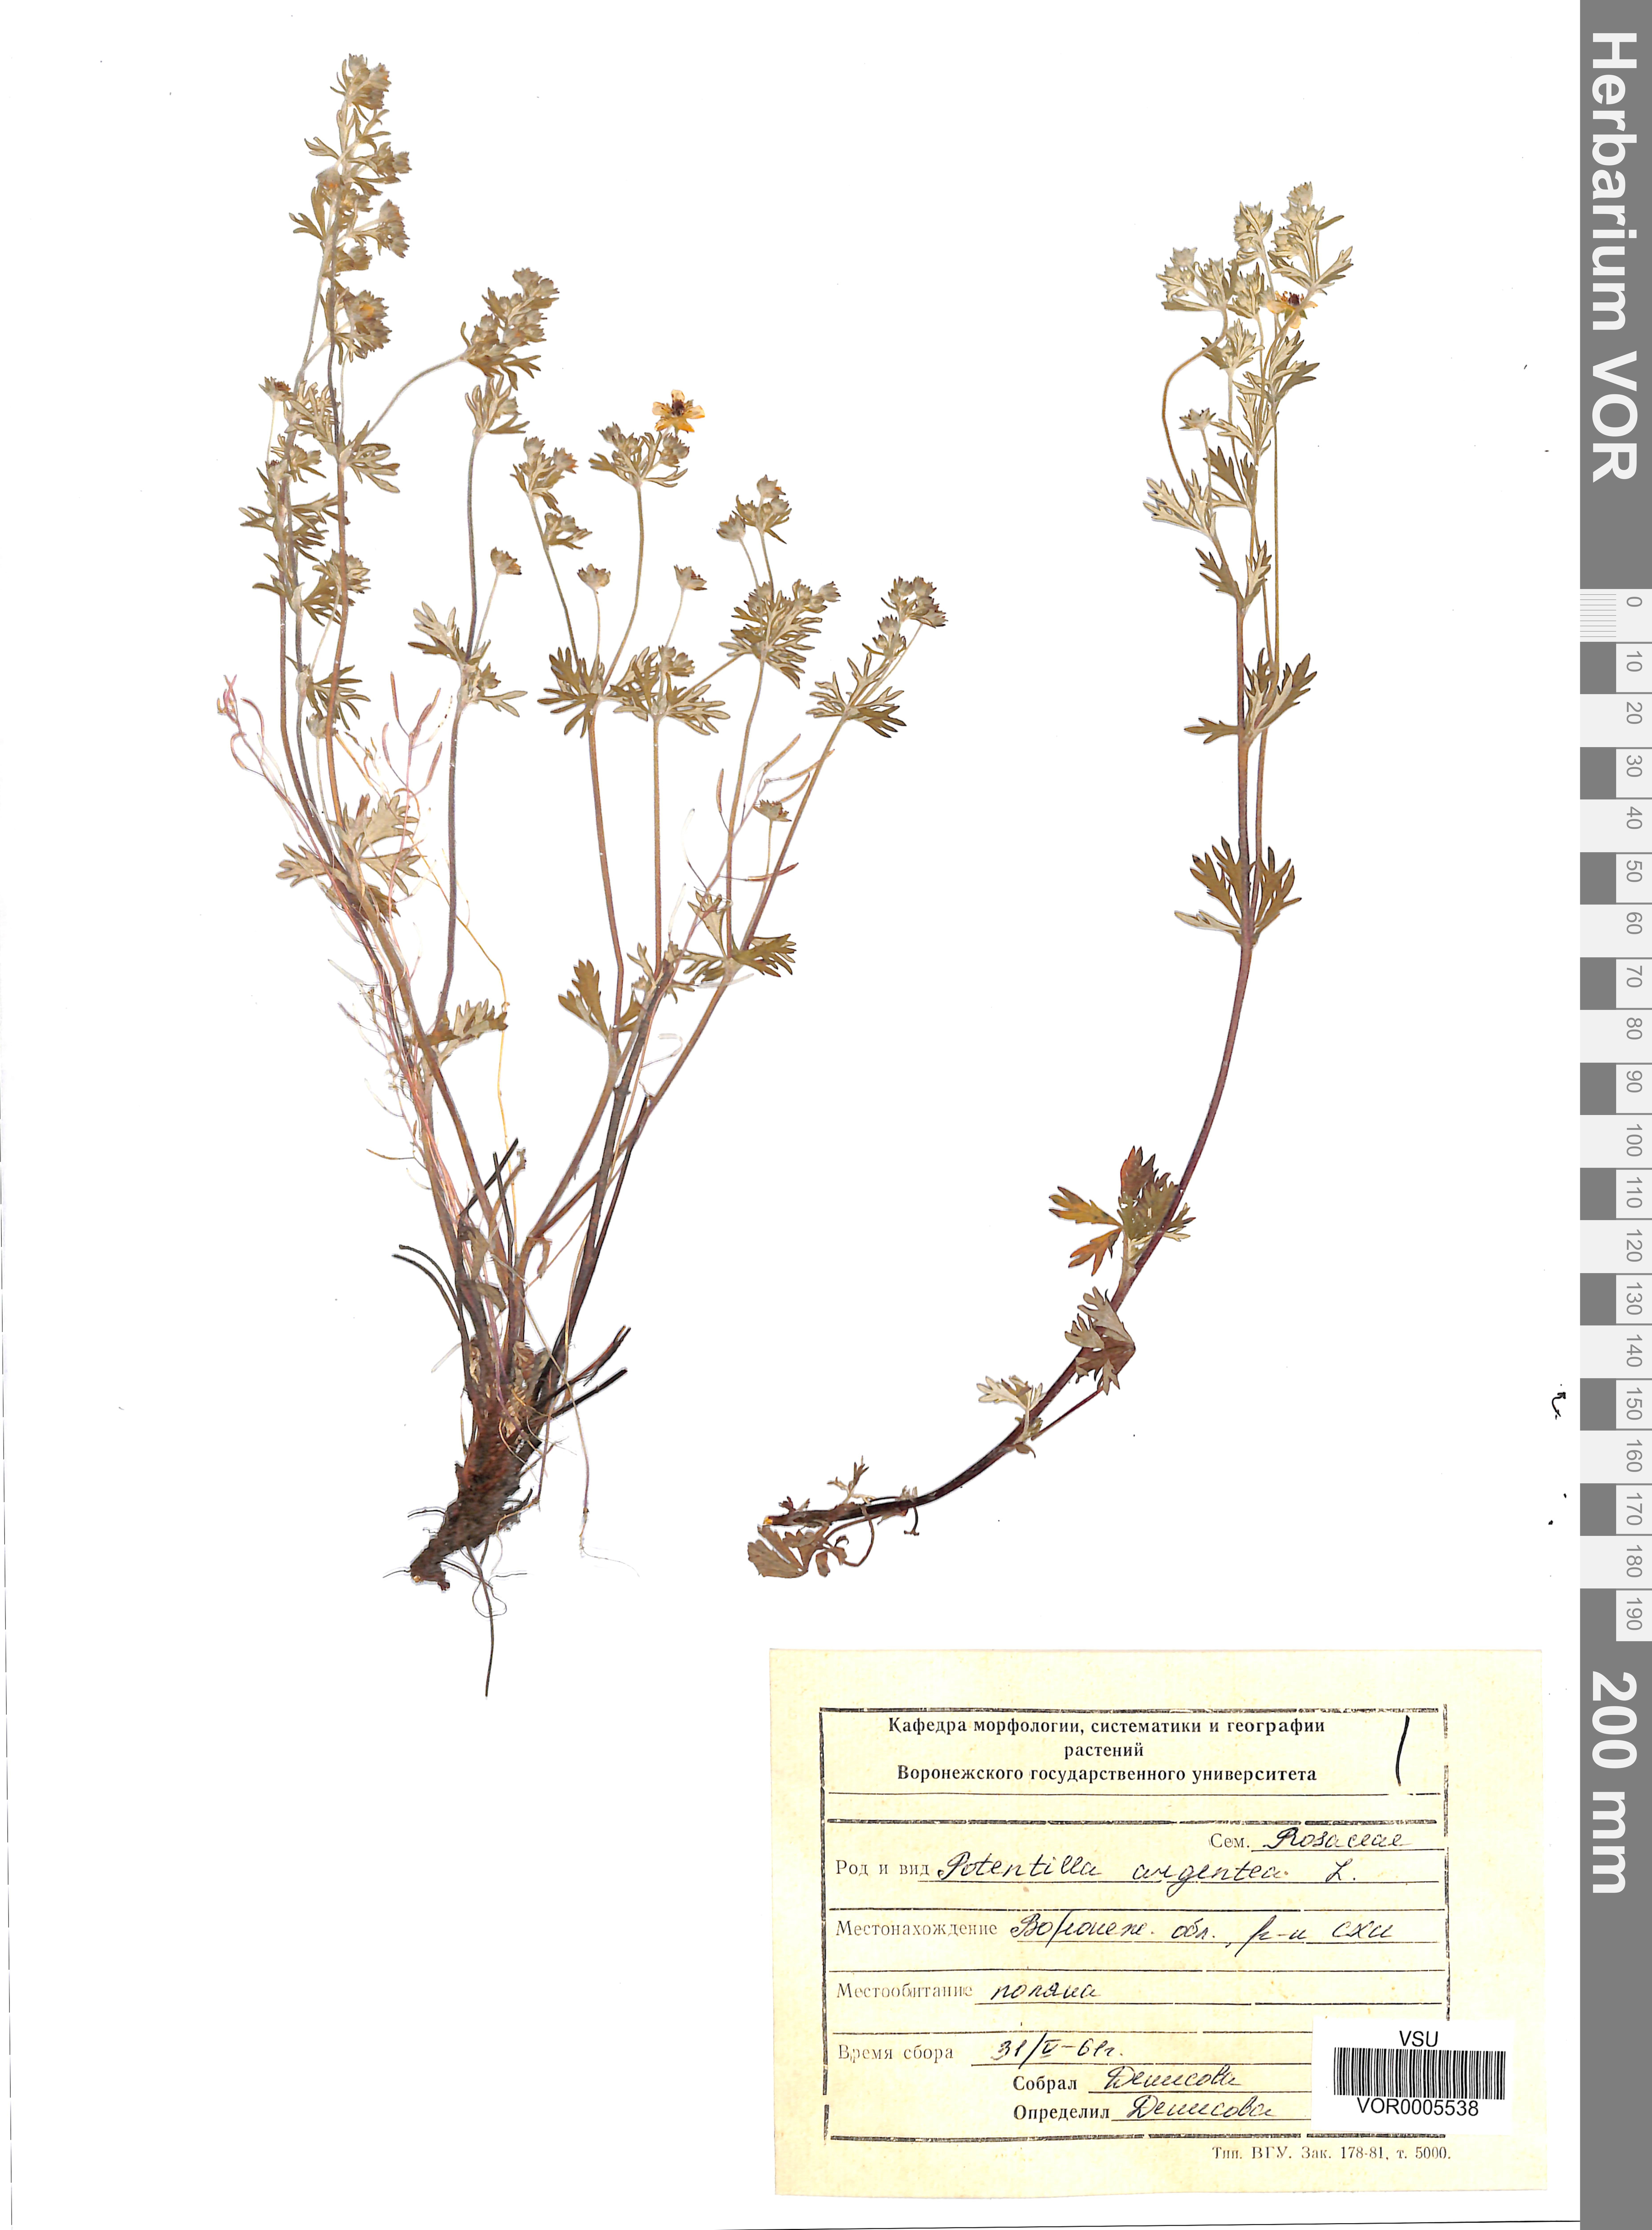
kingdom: Plantae
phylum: Tracheophyta
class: Magnoliopsida
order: Rosales
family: Rosaceae
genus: Potentilla
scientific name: Potentilla argentea
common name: Hoary cinquefoil
